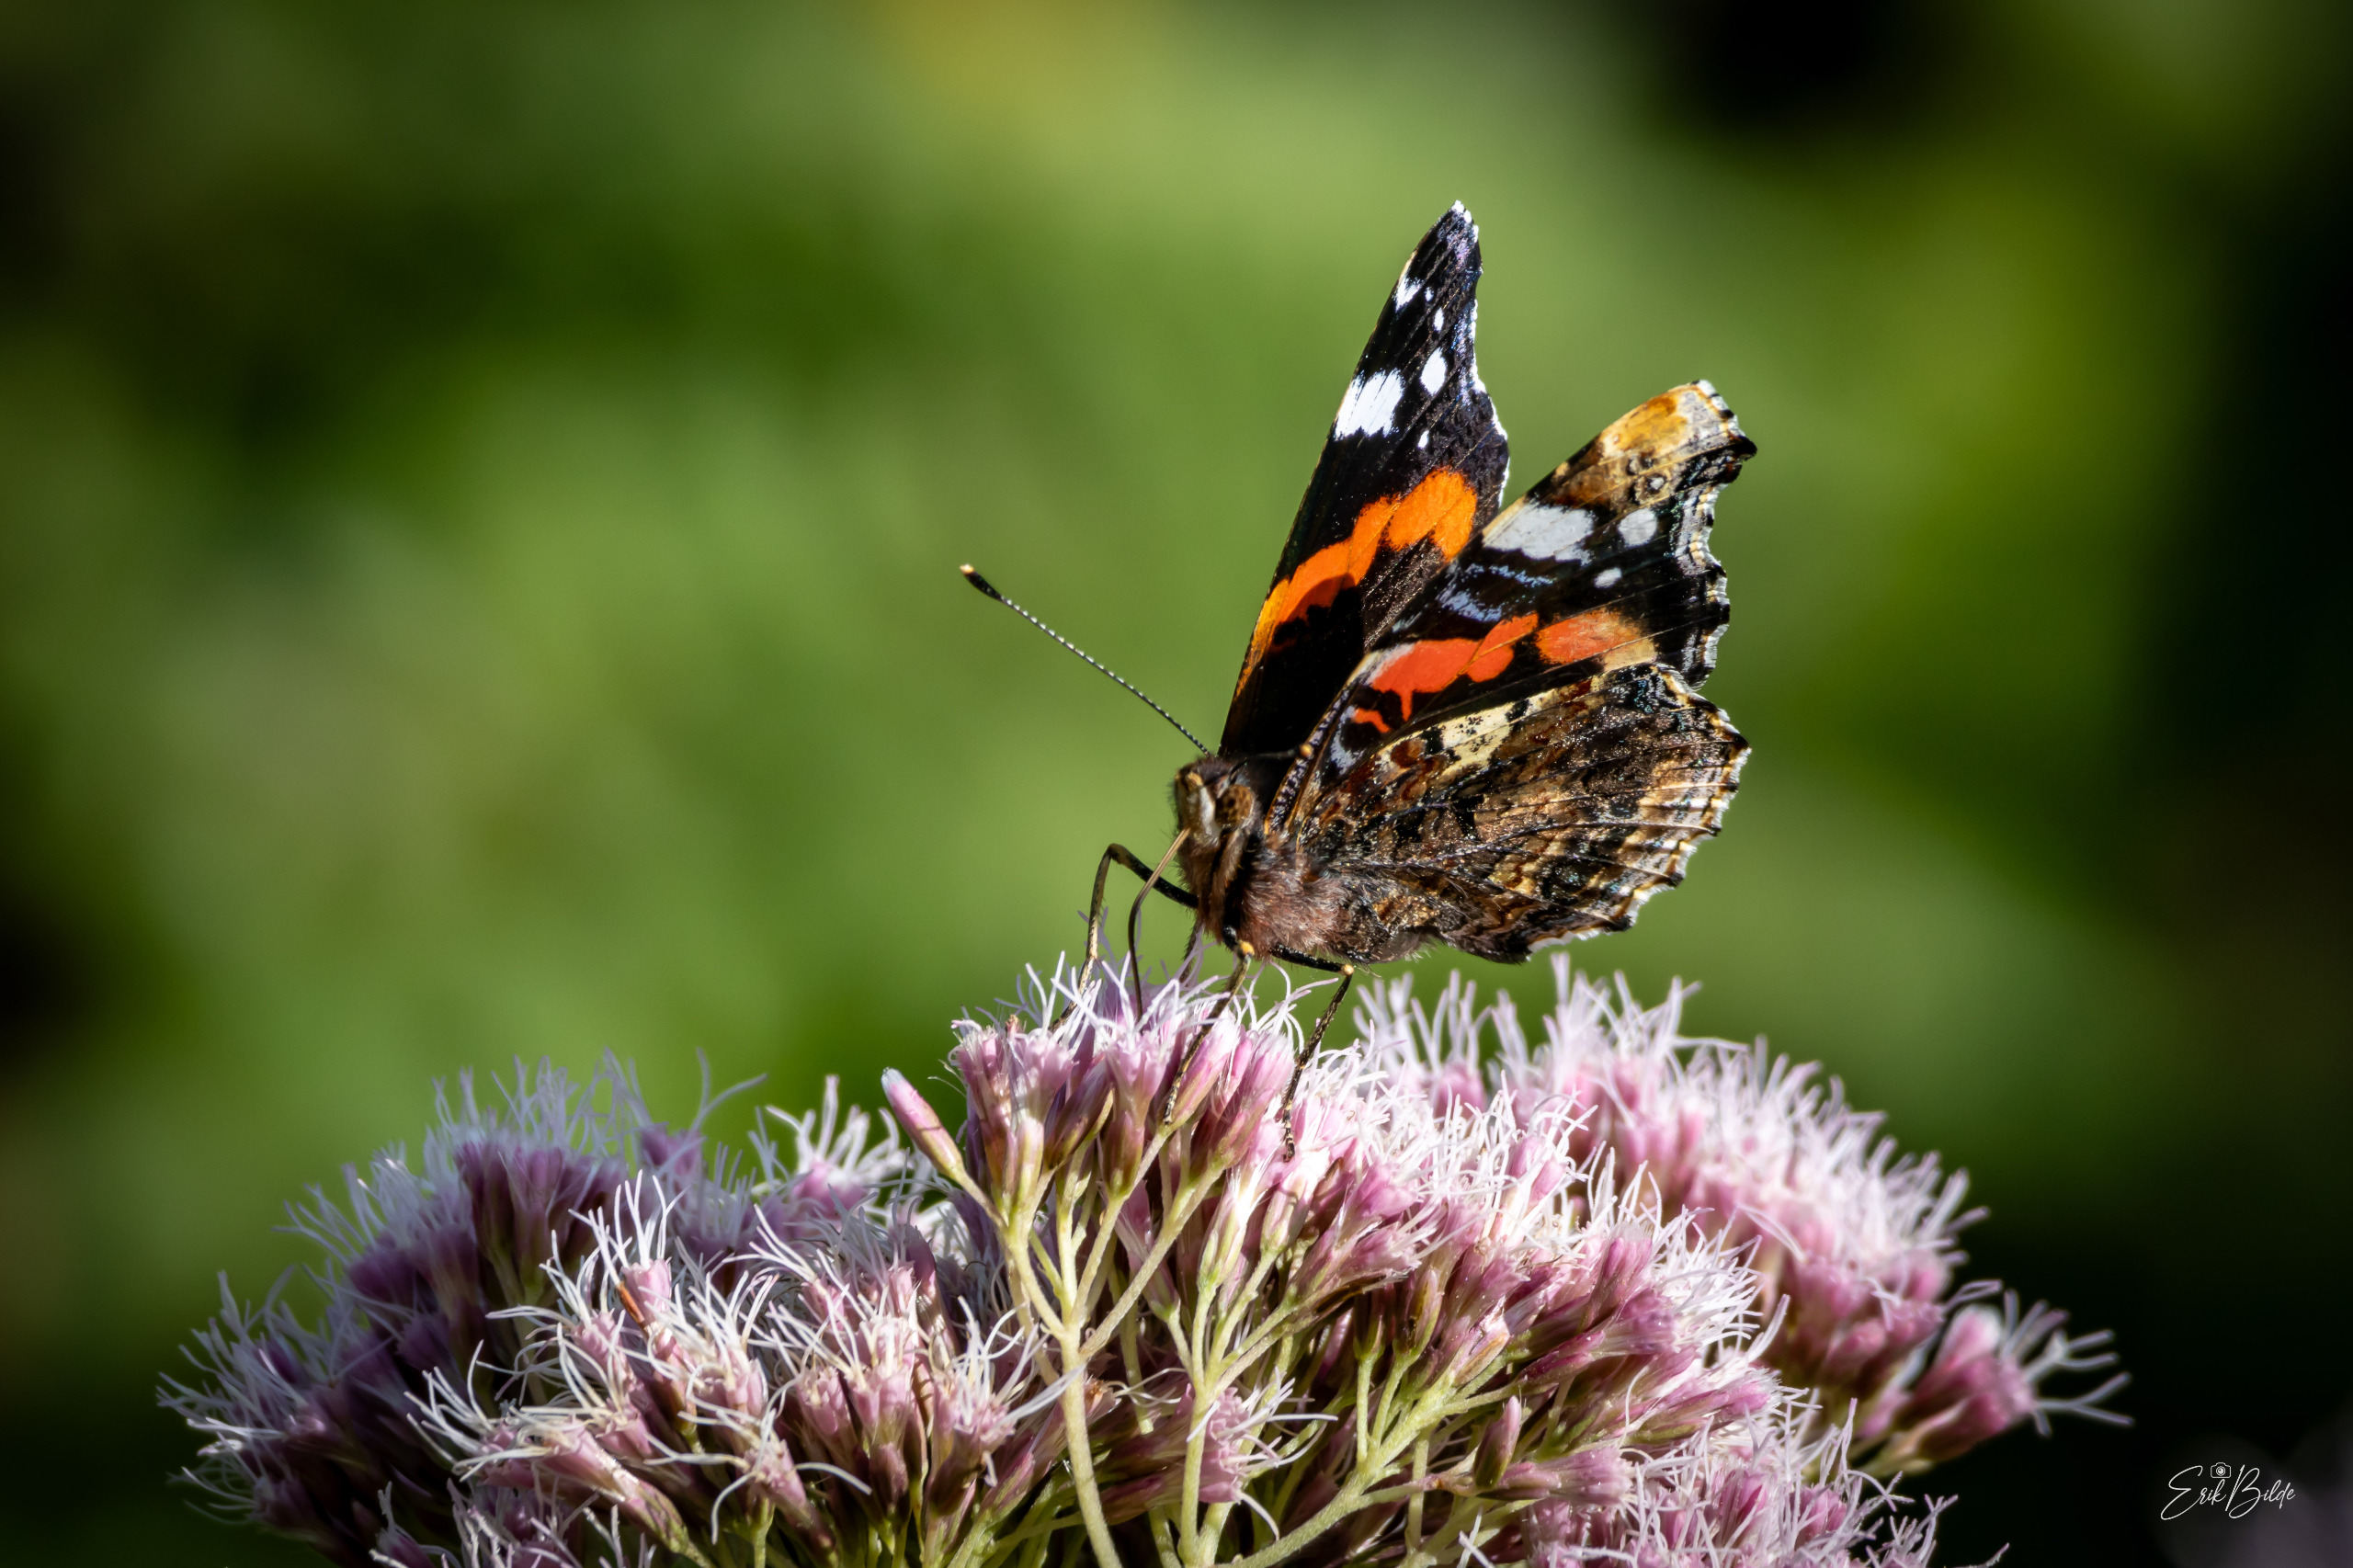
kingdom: Animalia
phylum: Arthropoda
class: Insecta
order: Lepidoptera
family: Nymphalidae
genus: Vanessa
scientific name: Vanessa atalanta
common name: Admiral
